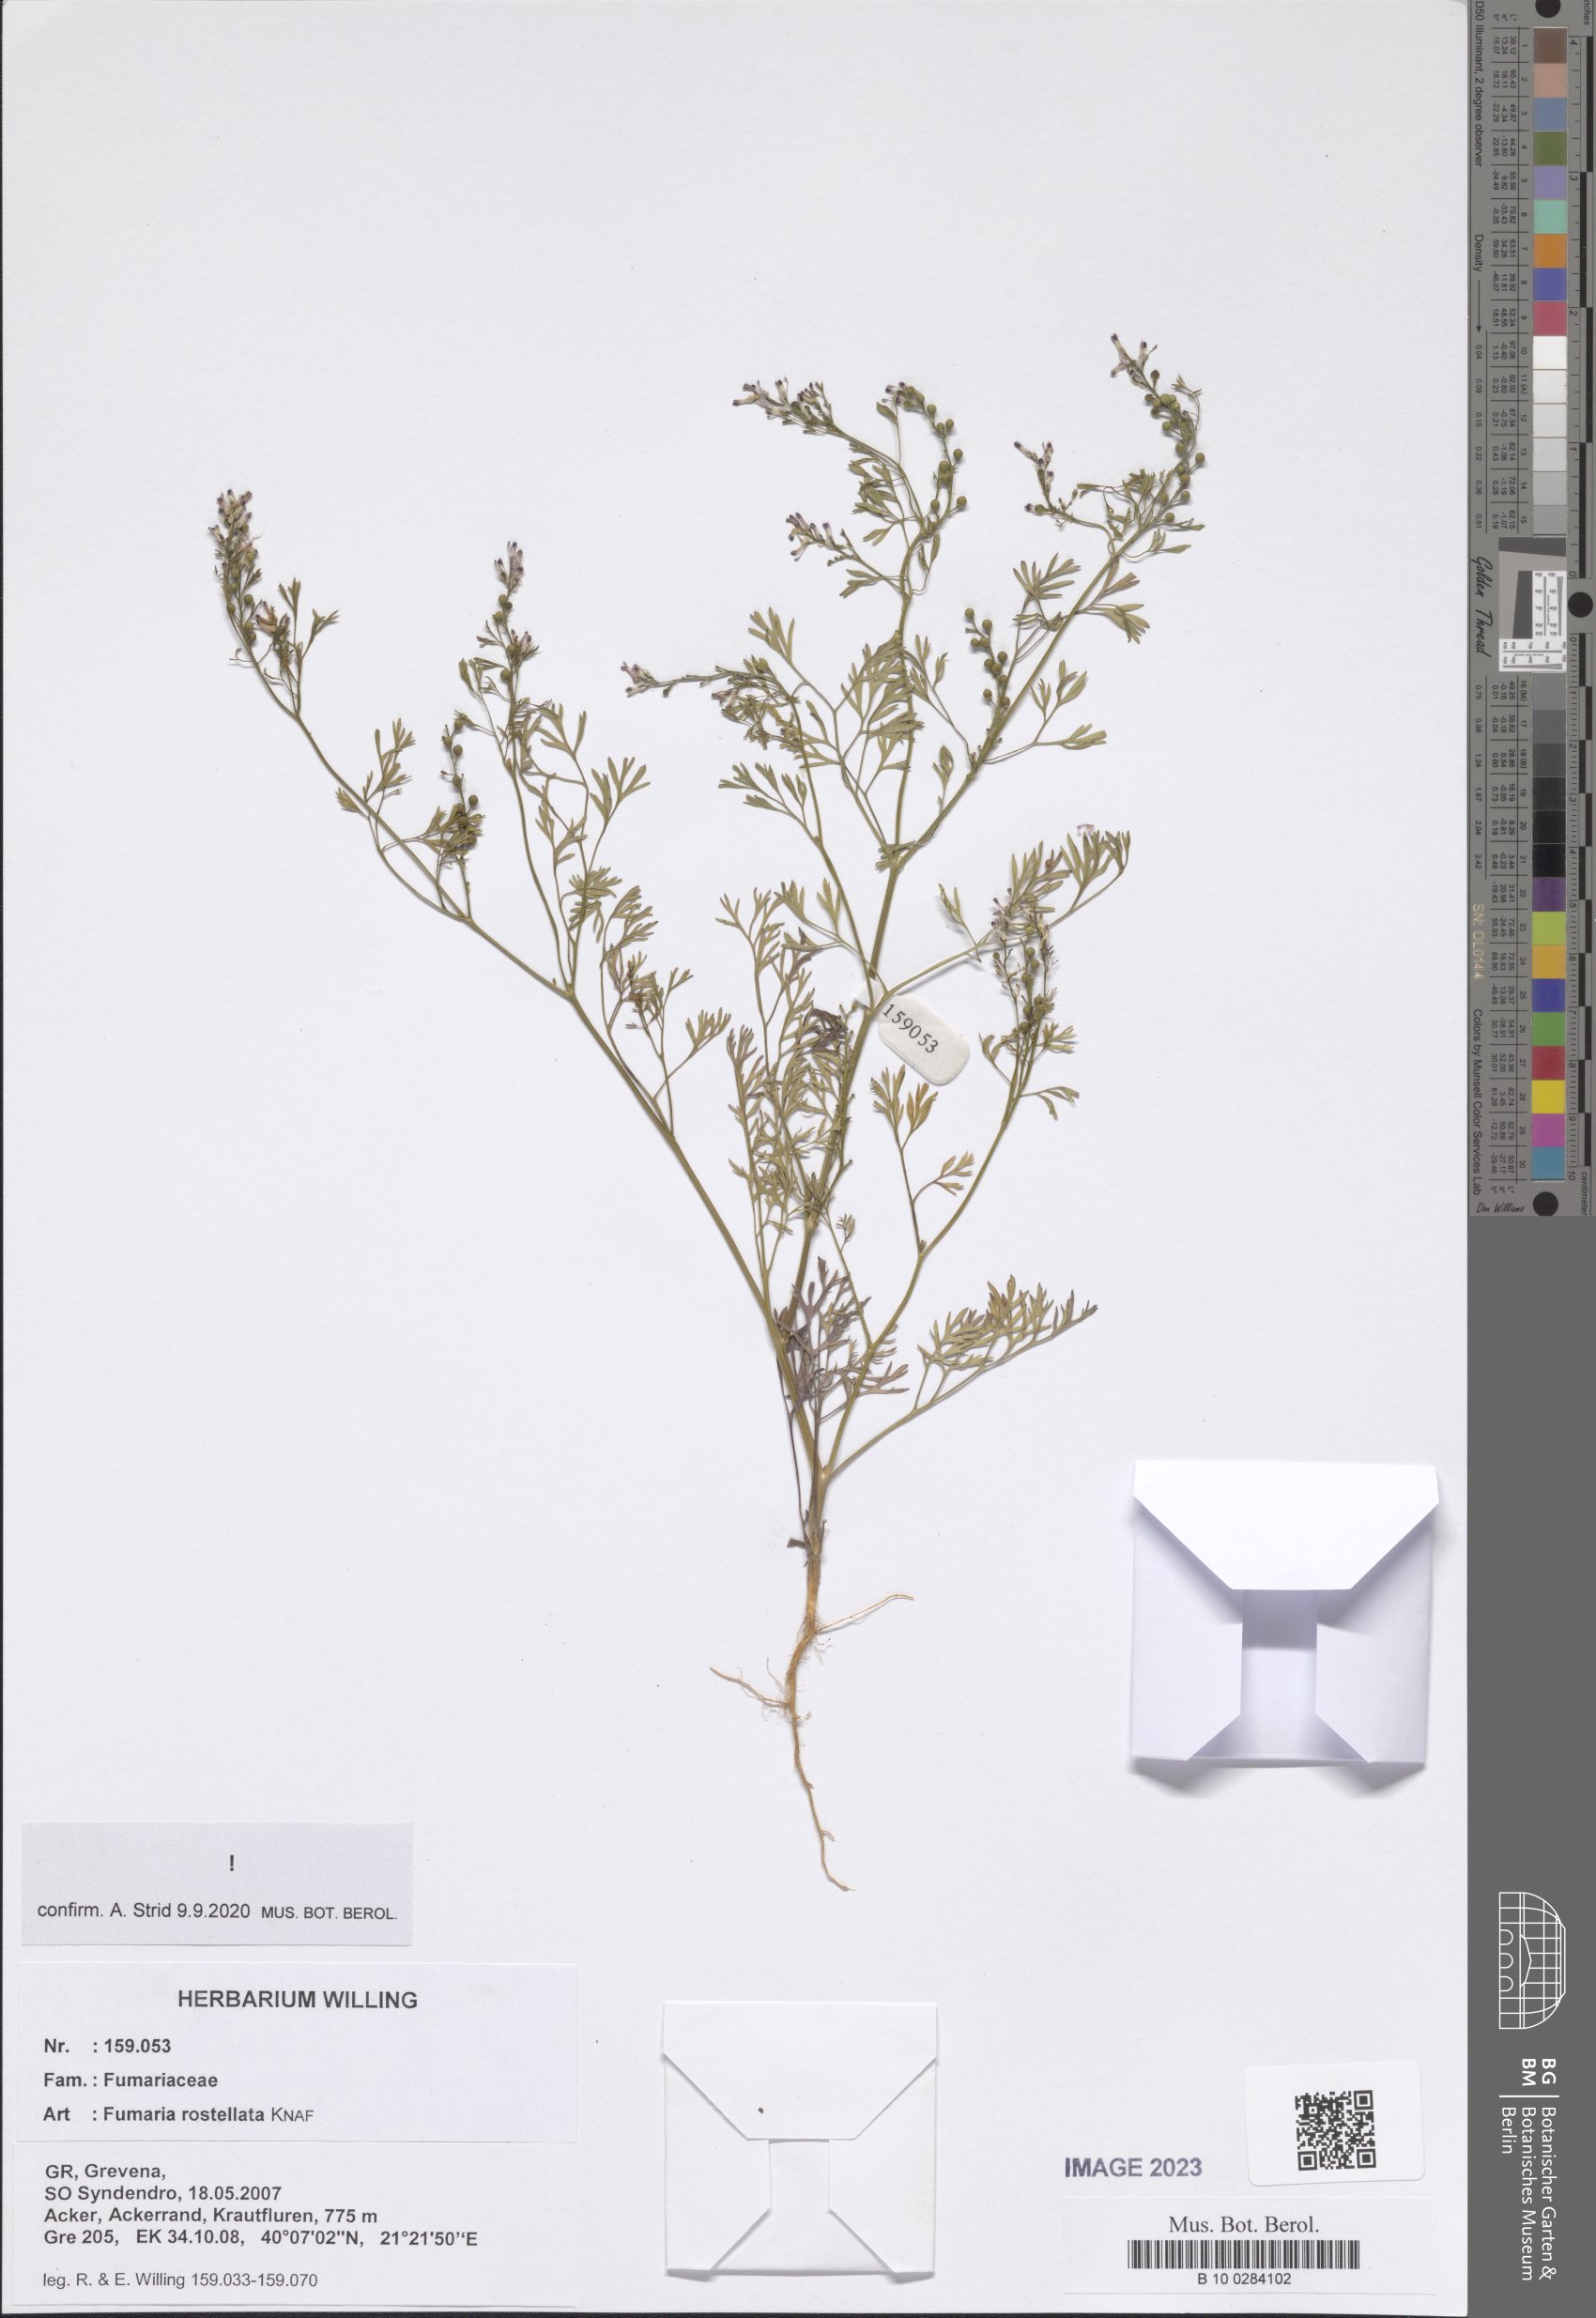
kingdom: Plantae
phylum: Tracheophyta
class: Magnoliopsida
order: Ranunculales
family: Papaveraceae
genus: Fumaria
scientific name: Fumaria rostellata
